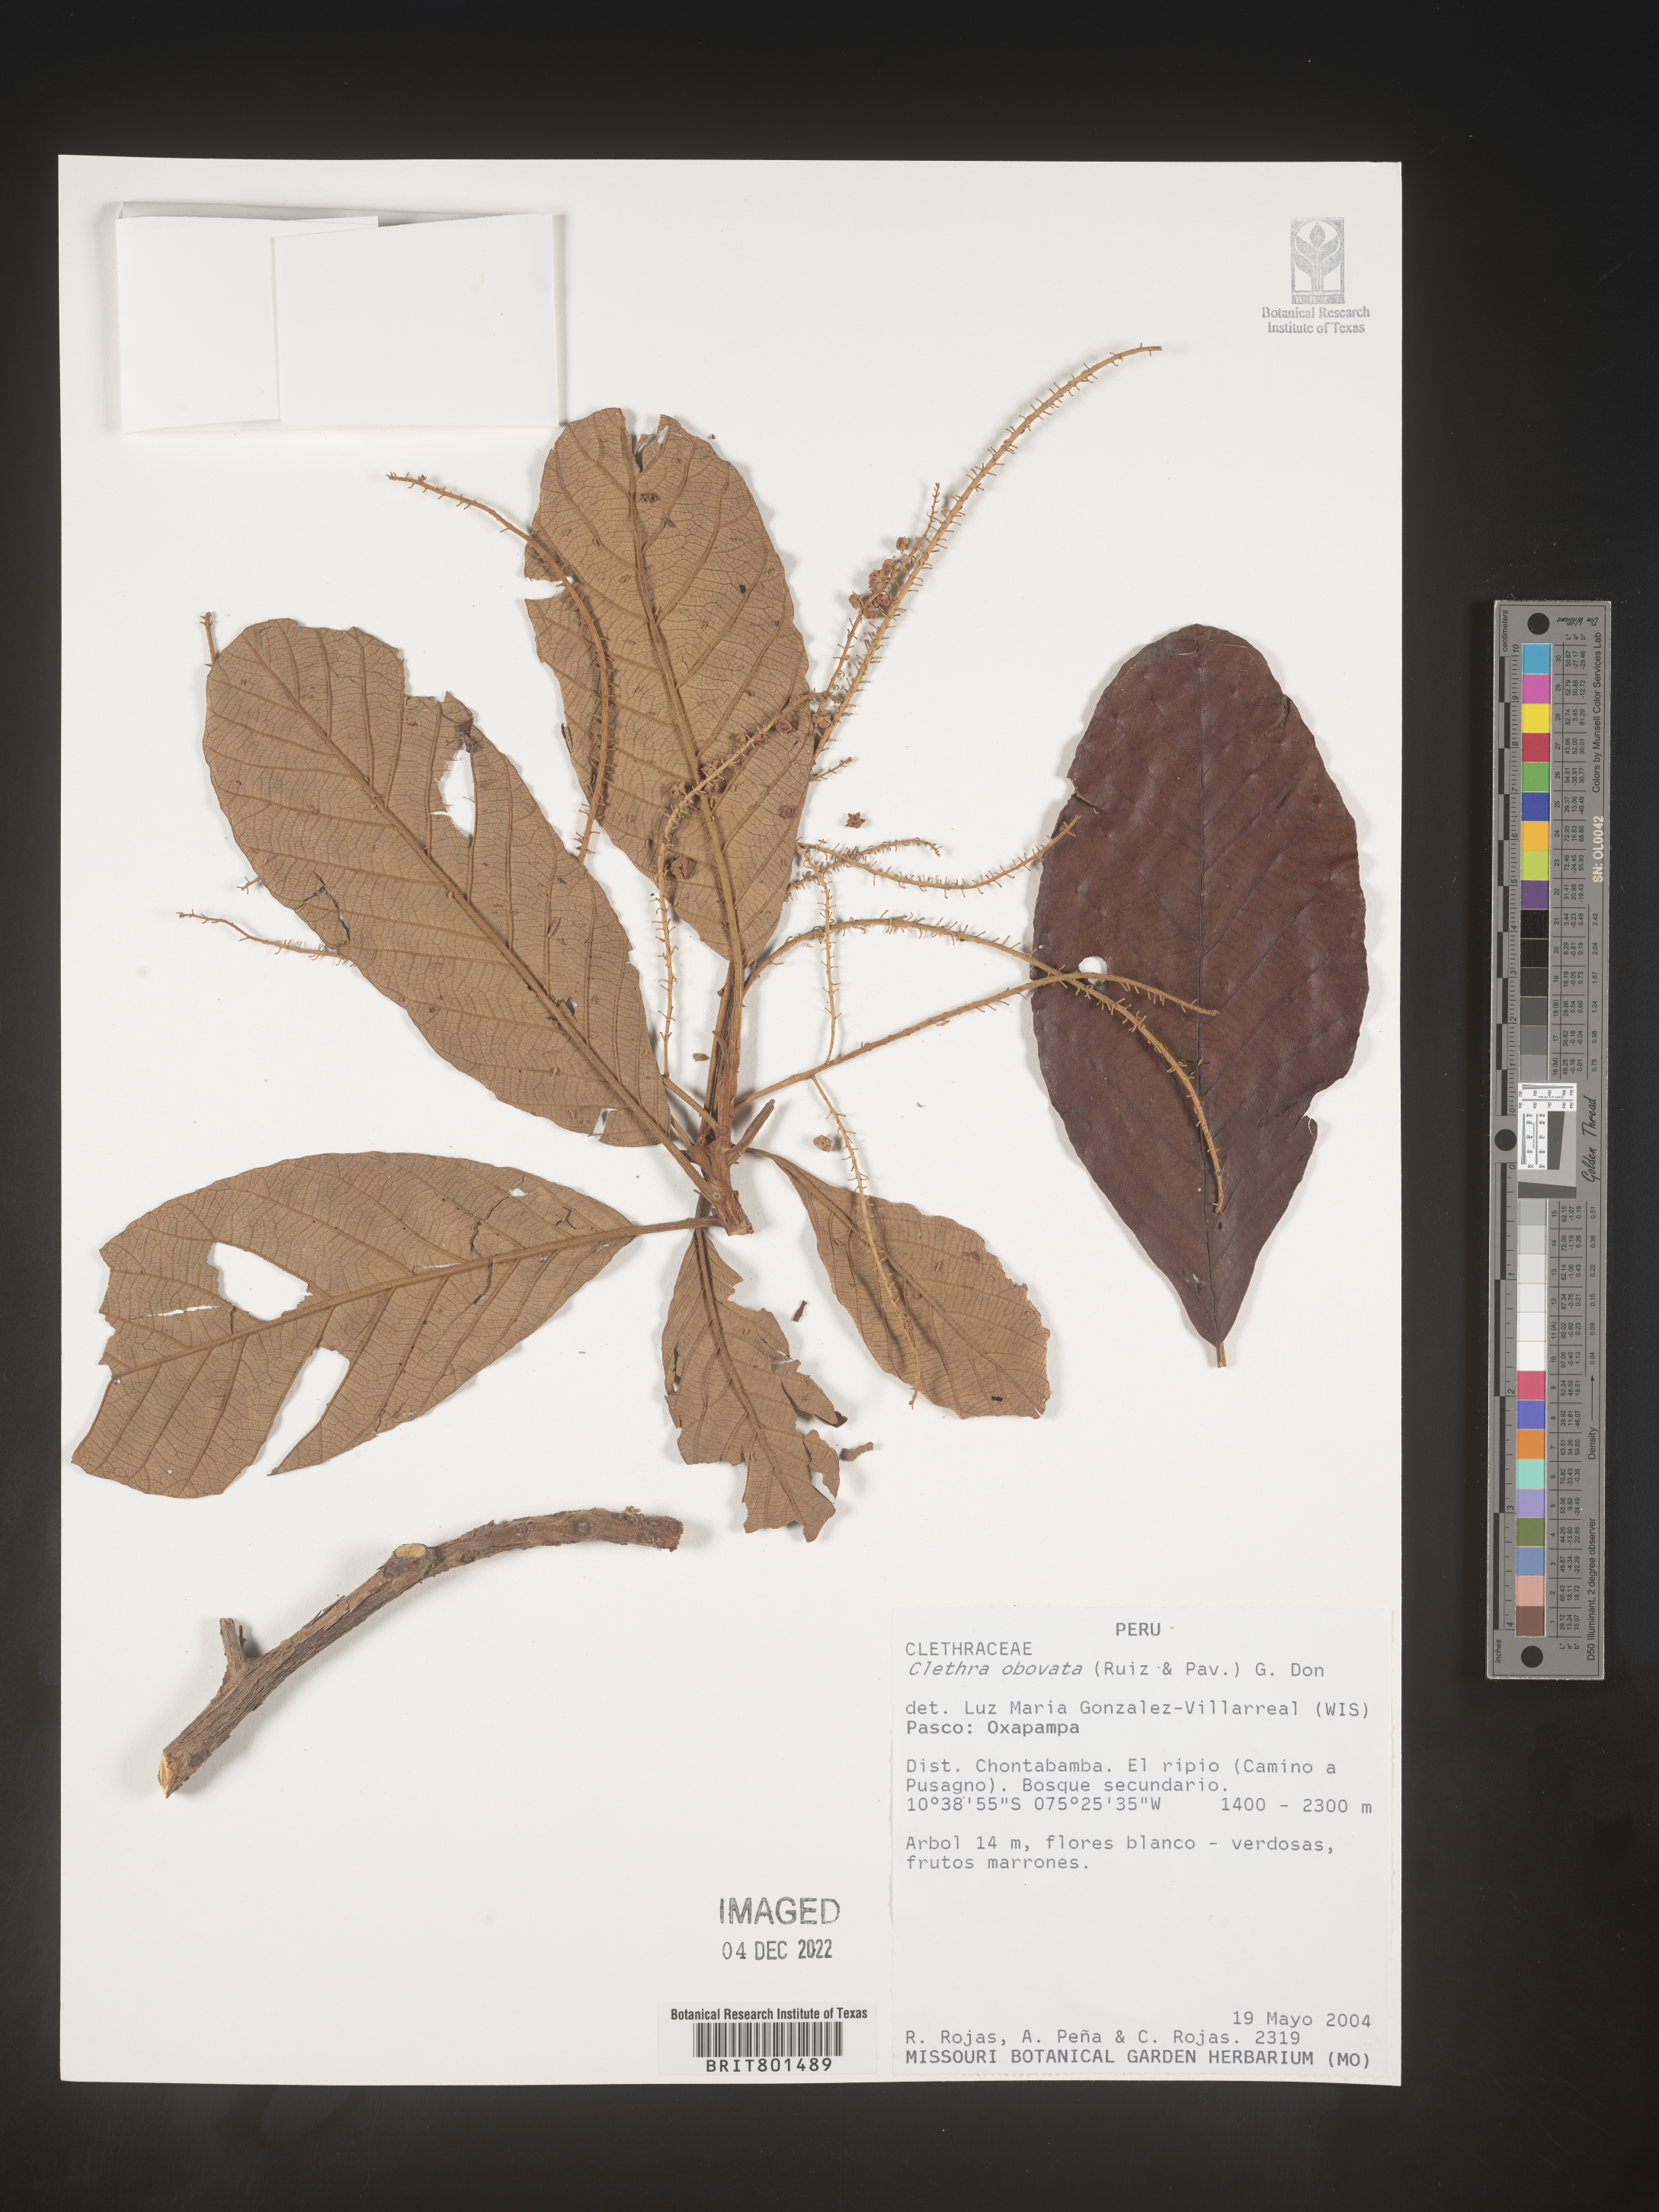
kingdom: Plantae
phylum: Tracheophyta
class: Magnoliopsida
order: Ericales
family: Clethraceae
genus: Clethra
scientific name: Clethra
